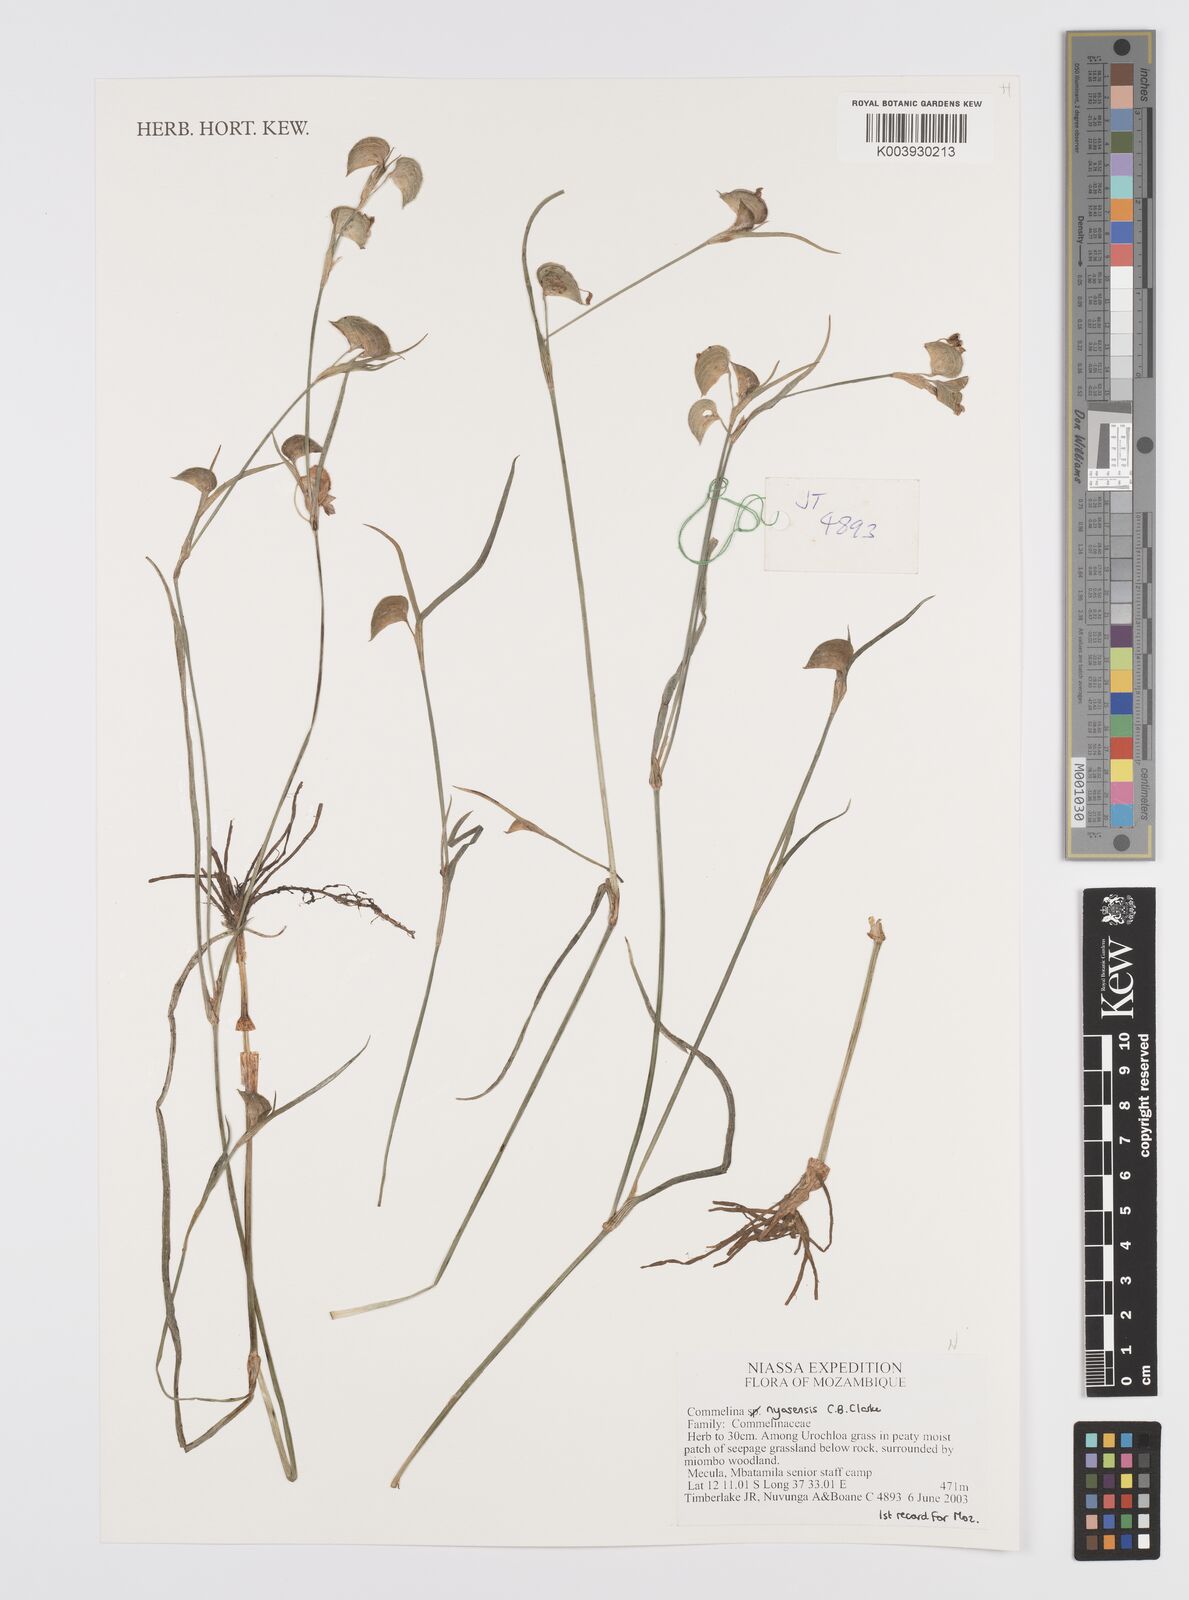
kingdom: Plantae
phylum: Tracheophyta
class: Liliopsida
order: Commelinales
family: Commelinaceae
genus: Commelina
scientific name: Commelina nyasensis
